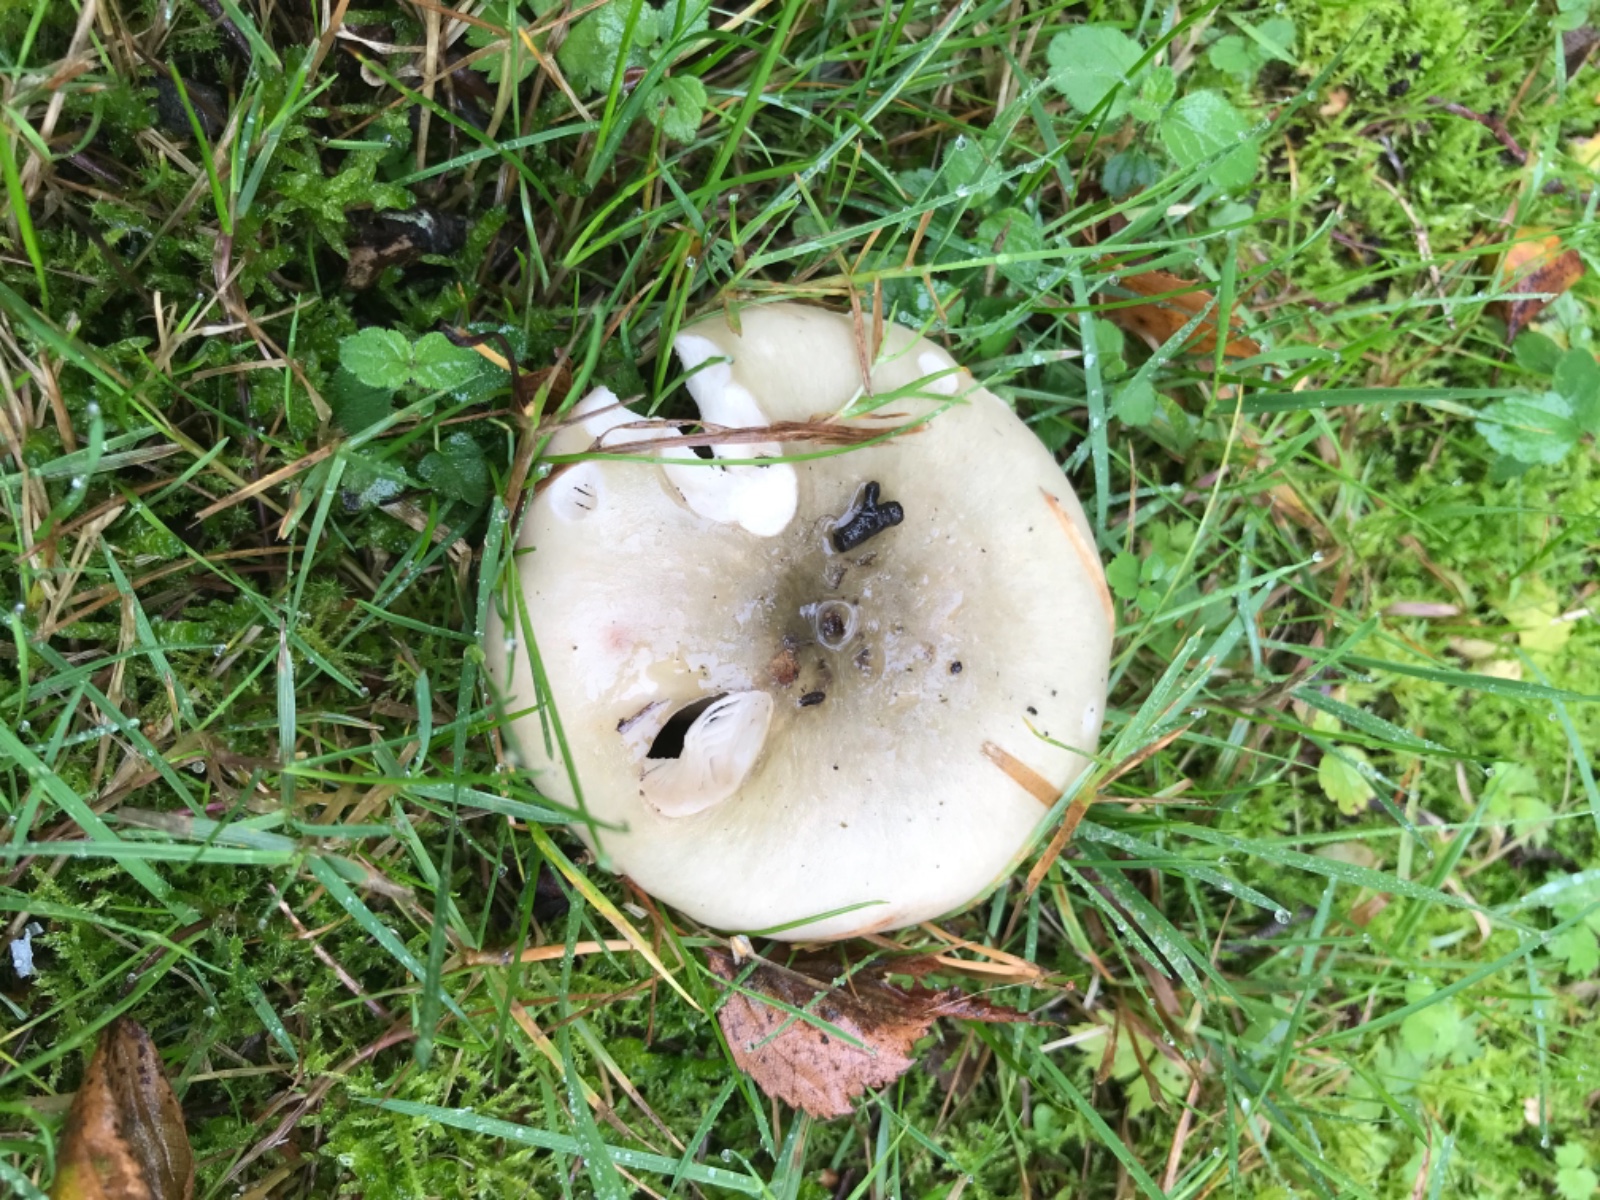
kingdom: Fungi
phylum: Basidiomycota
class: Agaricomycetes
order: Russulales
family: Russulaceae
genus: Russula
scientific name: Russula aeruginea
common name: græsgrøn skørhat
